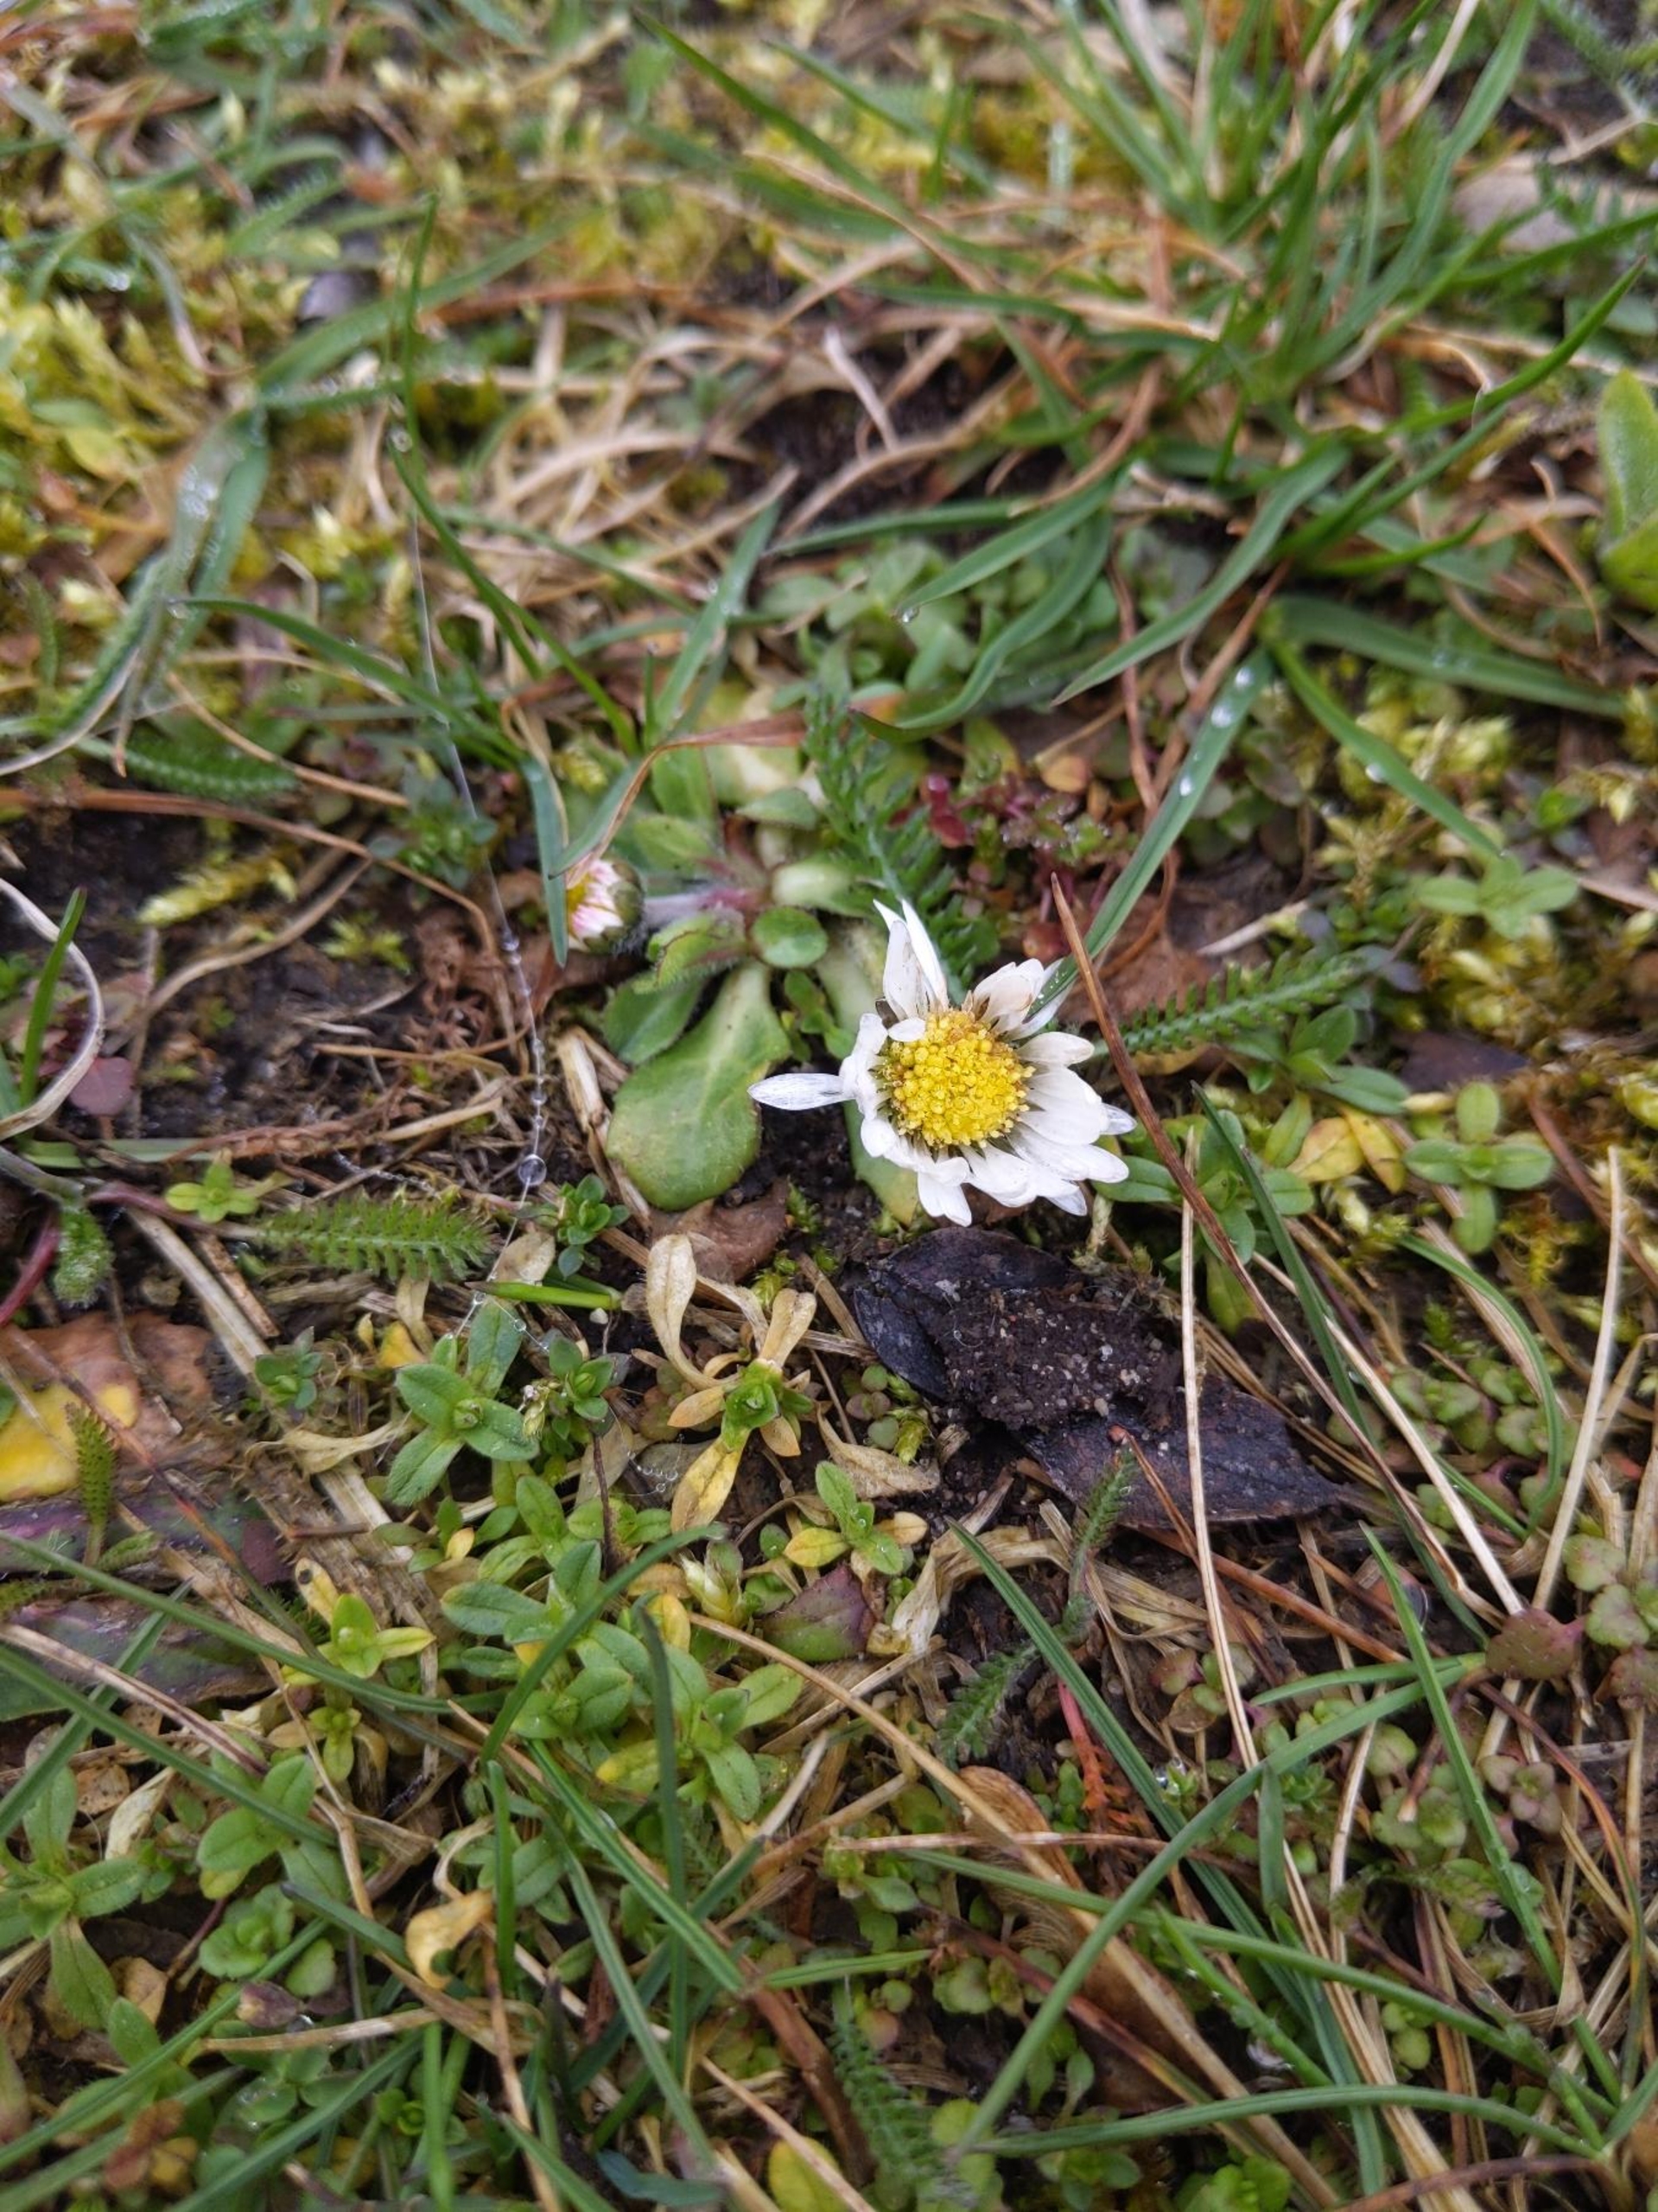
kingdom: Plantae
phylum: Tracheophyta
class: Magnoliopsida
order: Asterales
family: Asteraceae
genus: Bellis
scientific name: Bellis perennis
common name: Tusindfryd
